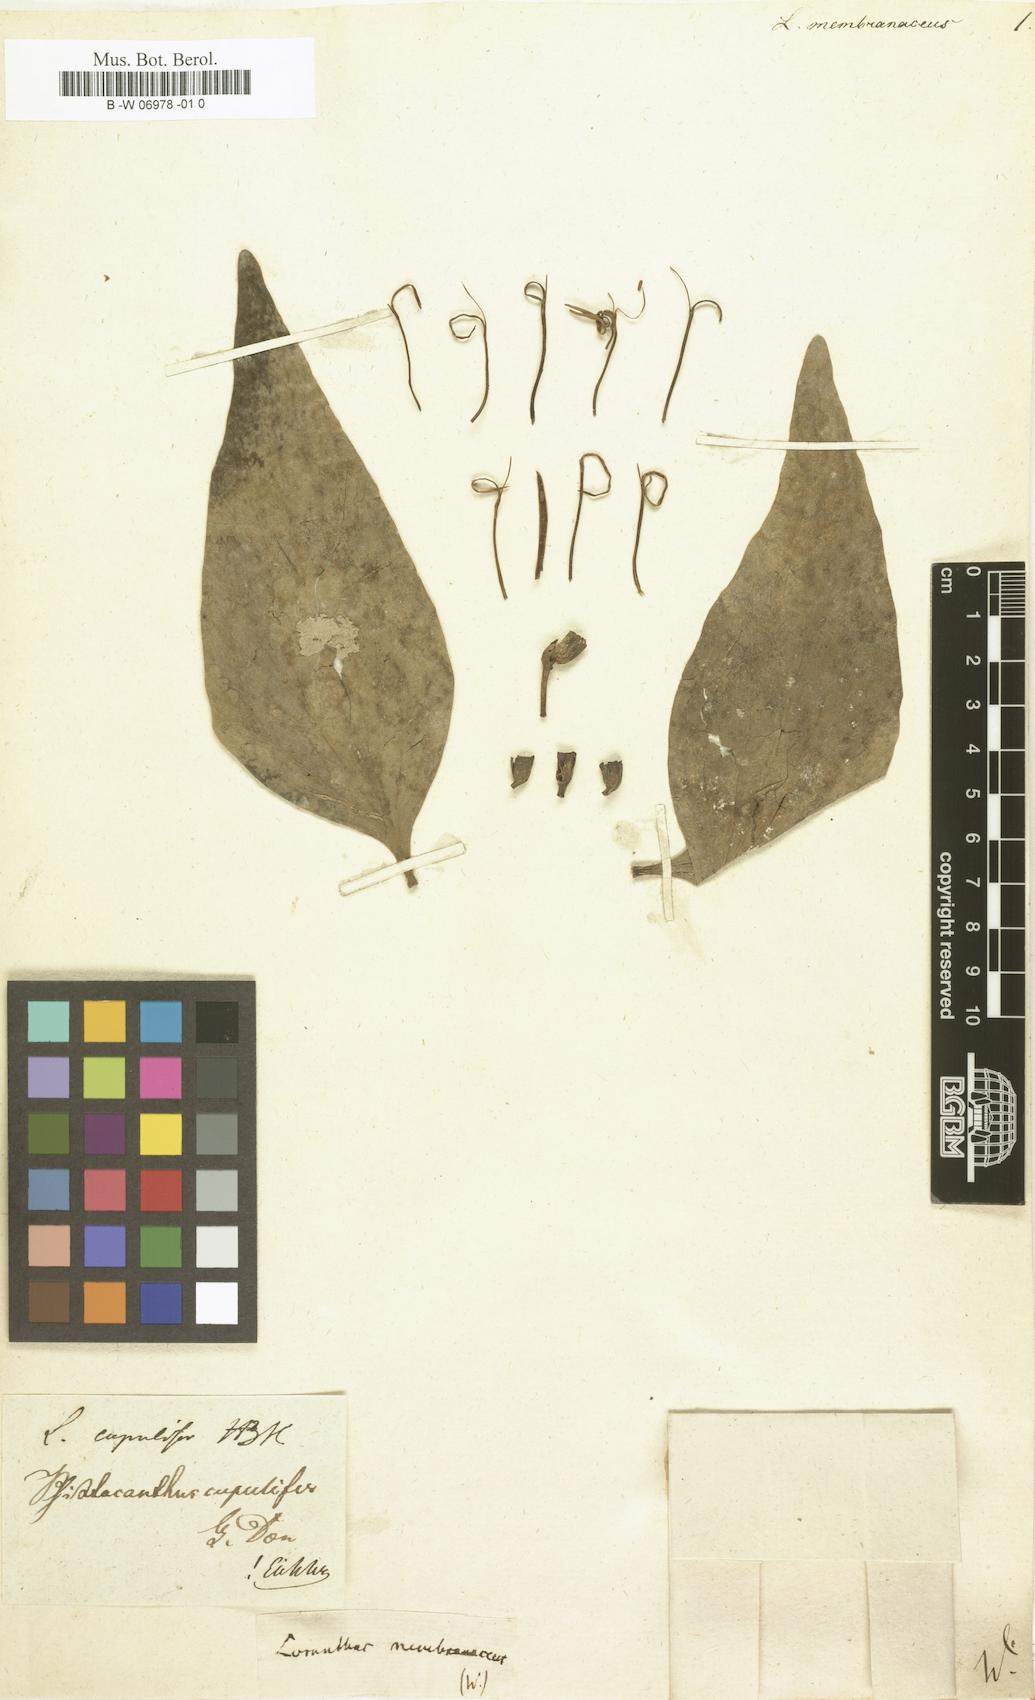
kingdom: Plantae
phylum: Tracheophyta
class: Magnoliopsida
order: Santalales
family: Loranthaceae
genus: Loranthus
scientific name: Loranthus
